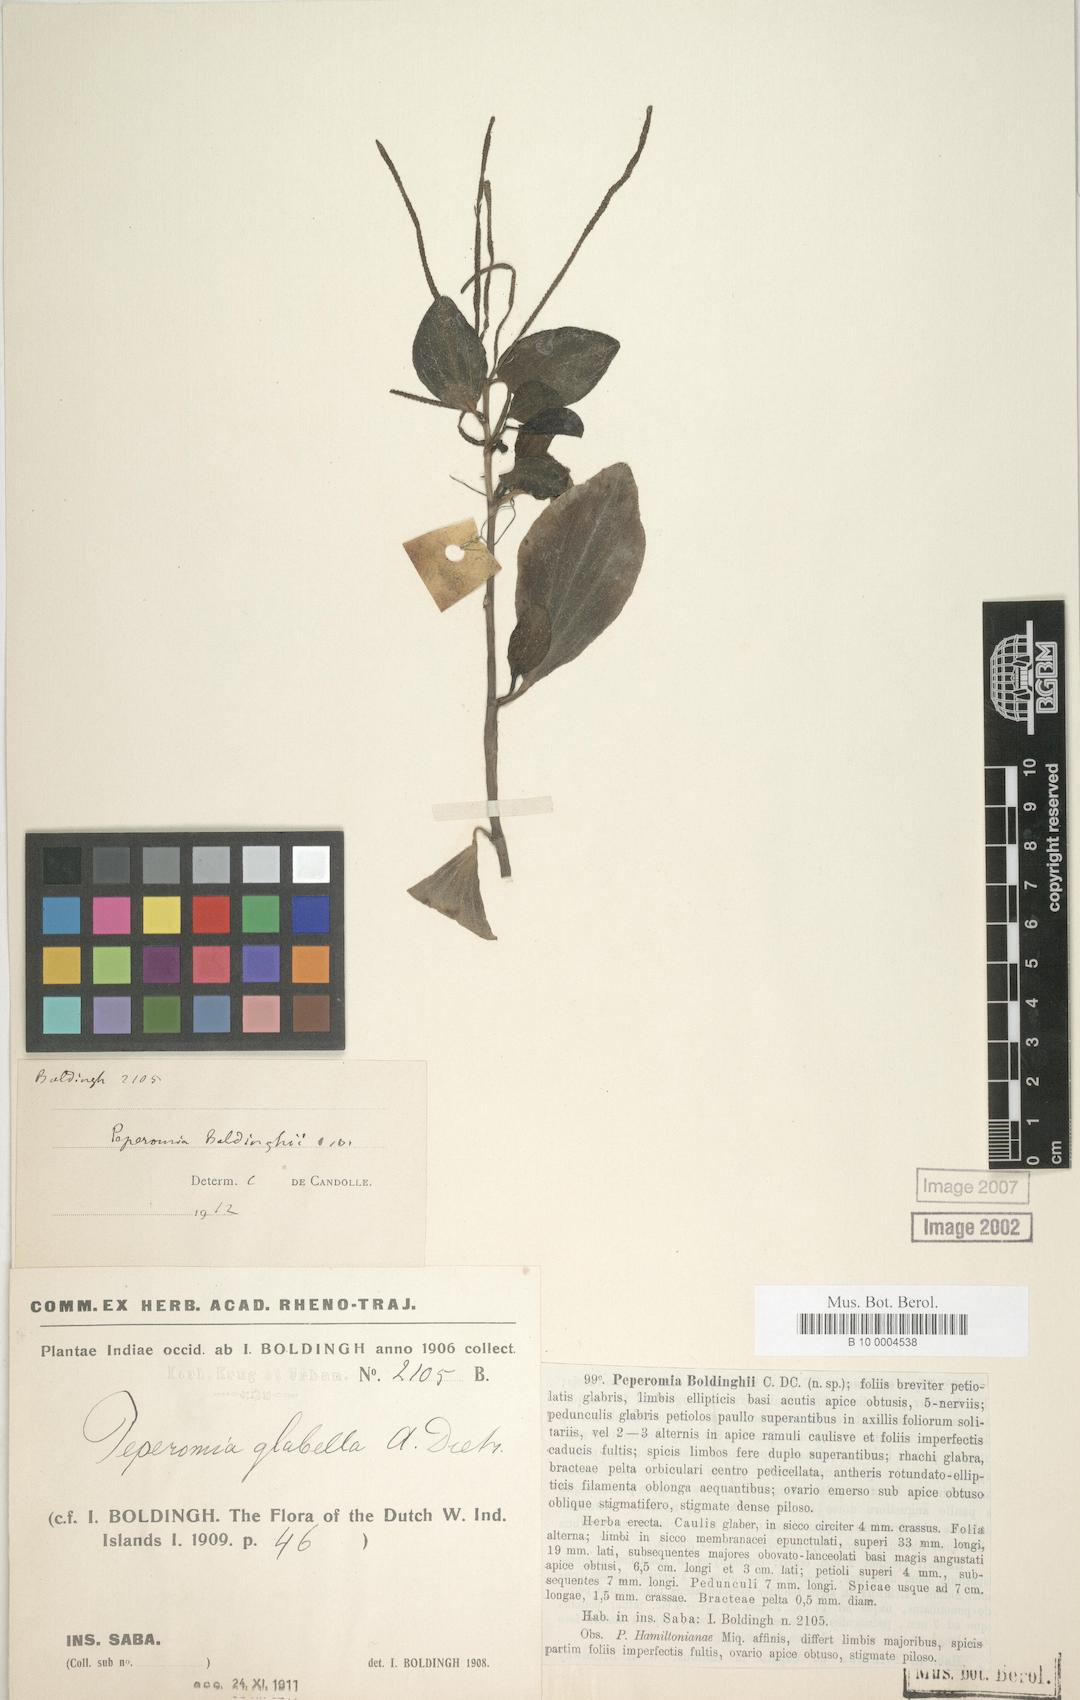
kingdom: Plantae
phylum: Tracheophyta
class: Magnoliopsida
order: Piperales
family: Piperaceae
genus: Peperomia
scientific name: Peperomia myrtifolia
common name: Myrtleleaf peperomia
